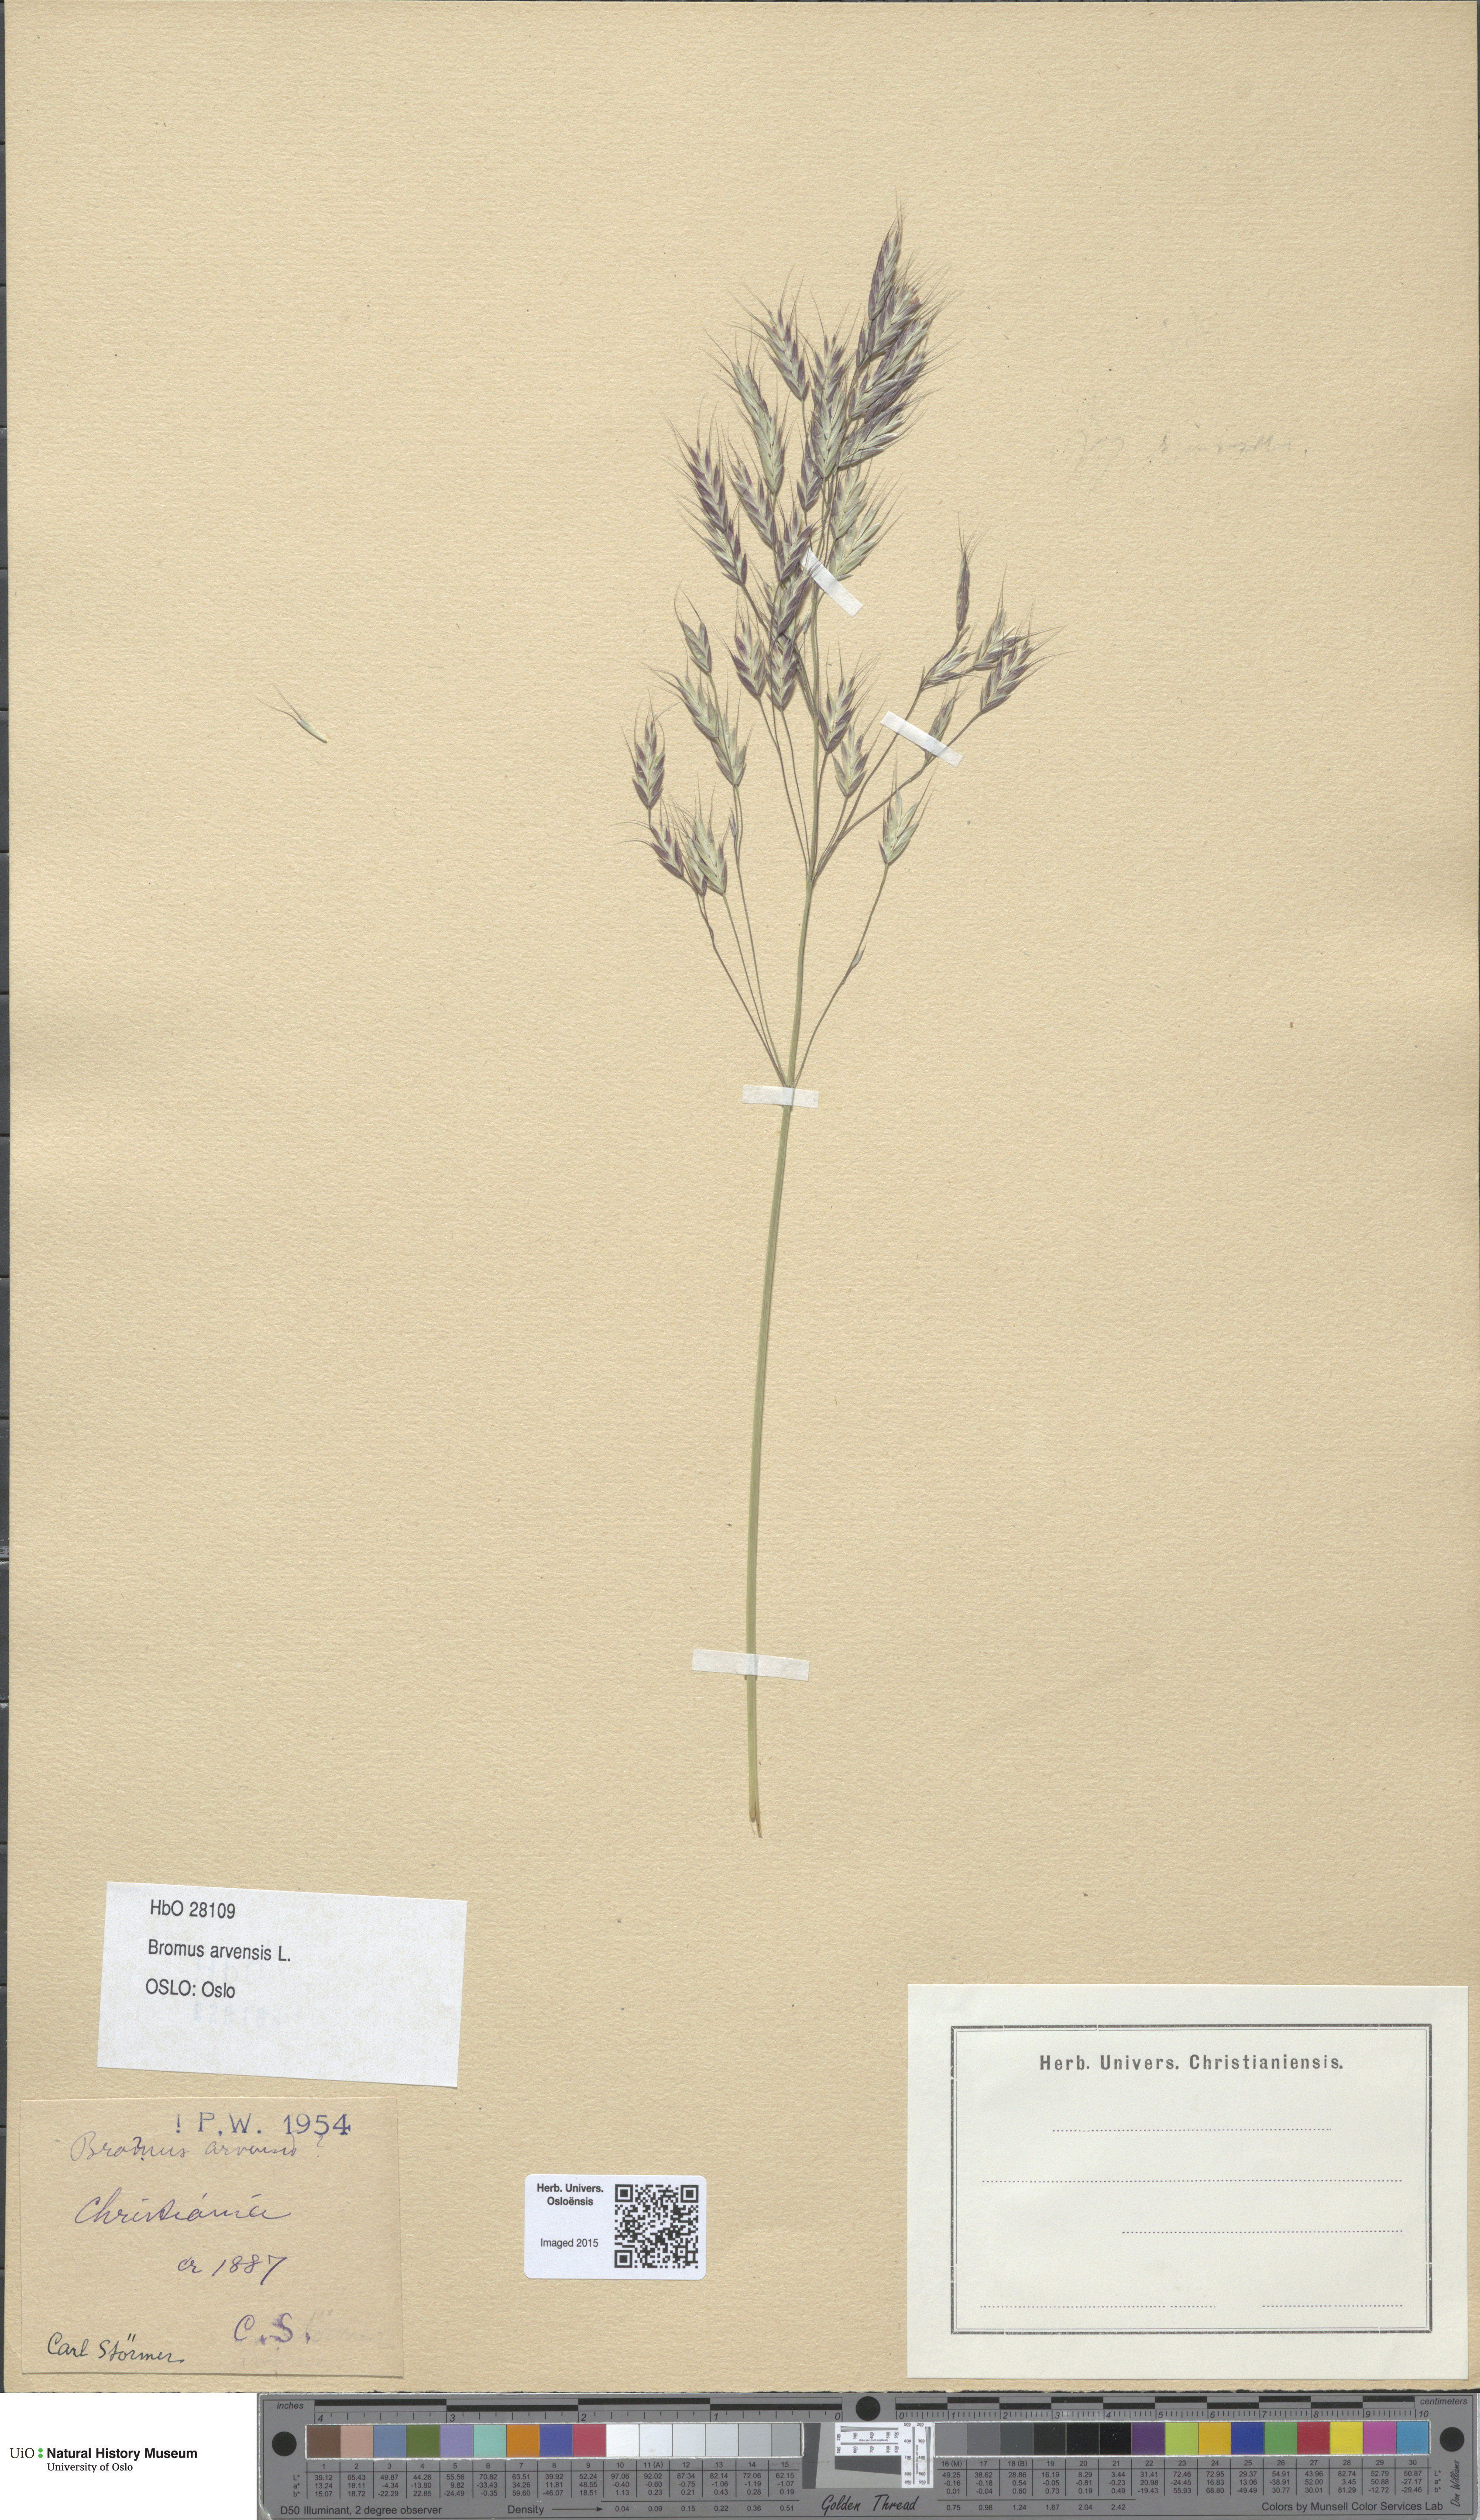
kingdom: Plantae
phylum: Tracheophyta
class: Liliopsida
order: Poales
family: Poaceae
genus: Bromus
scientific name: Bromus arvensis
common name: Field brome
